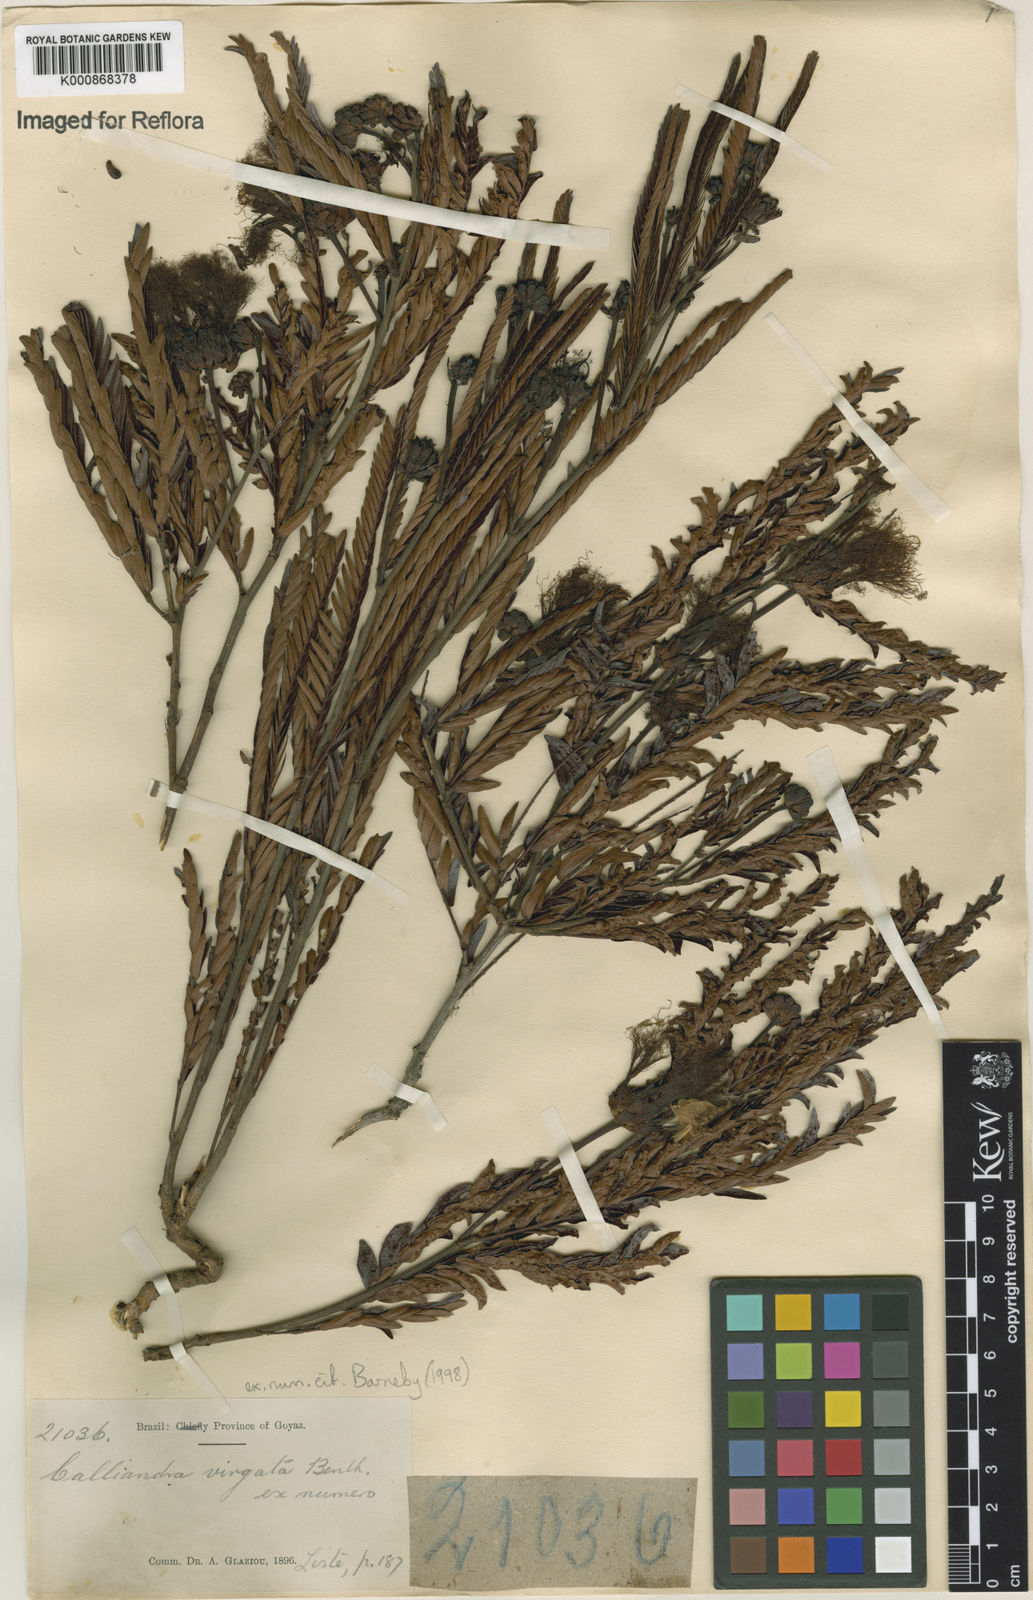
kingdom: Plantae
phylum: Tracheophyta
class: Magnoliopsida
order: Fabales
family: Fabaceae
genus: Calliandra
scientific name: Calliandra virgata
